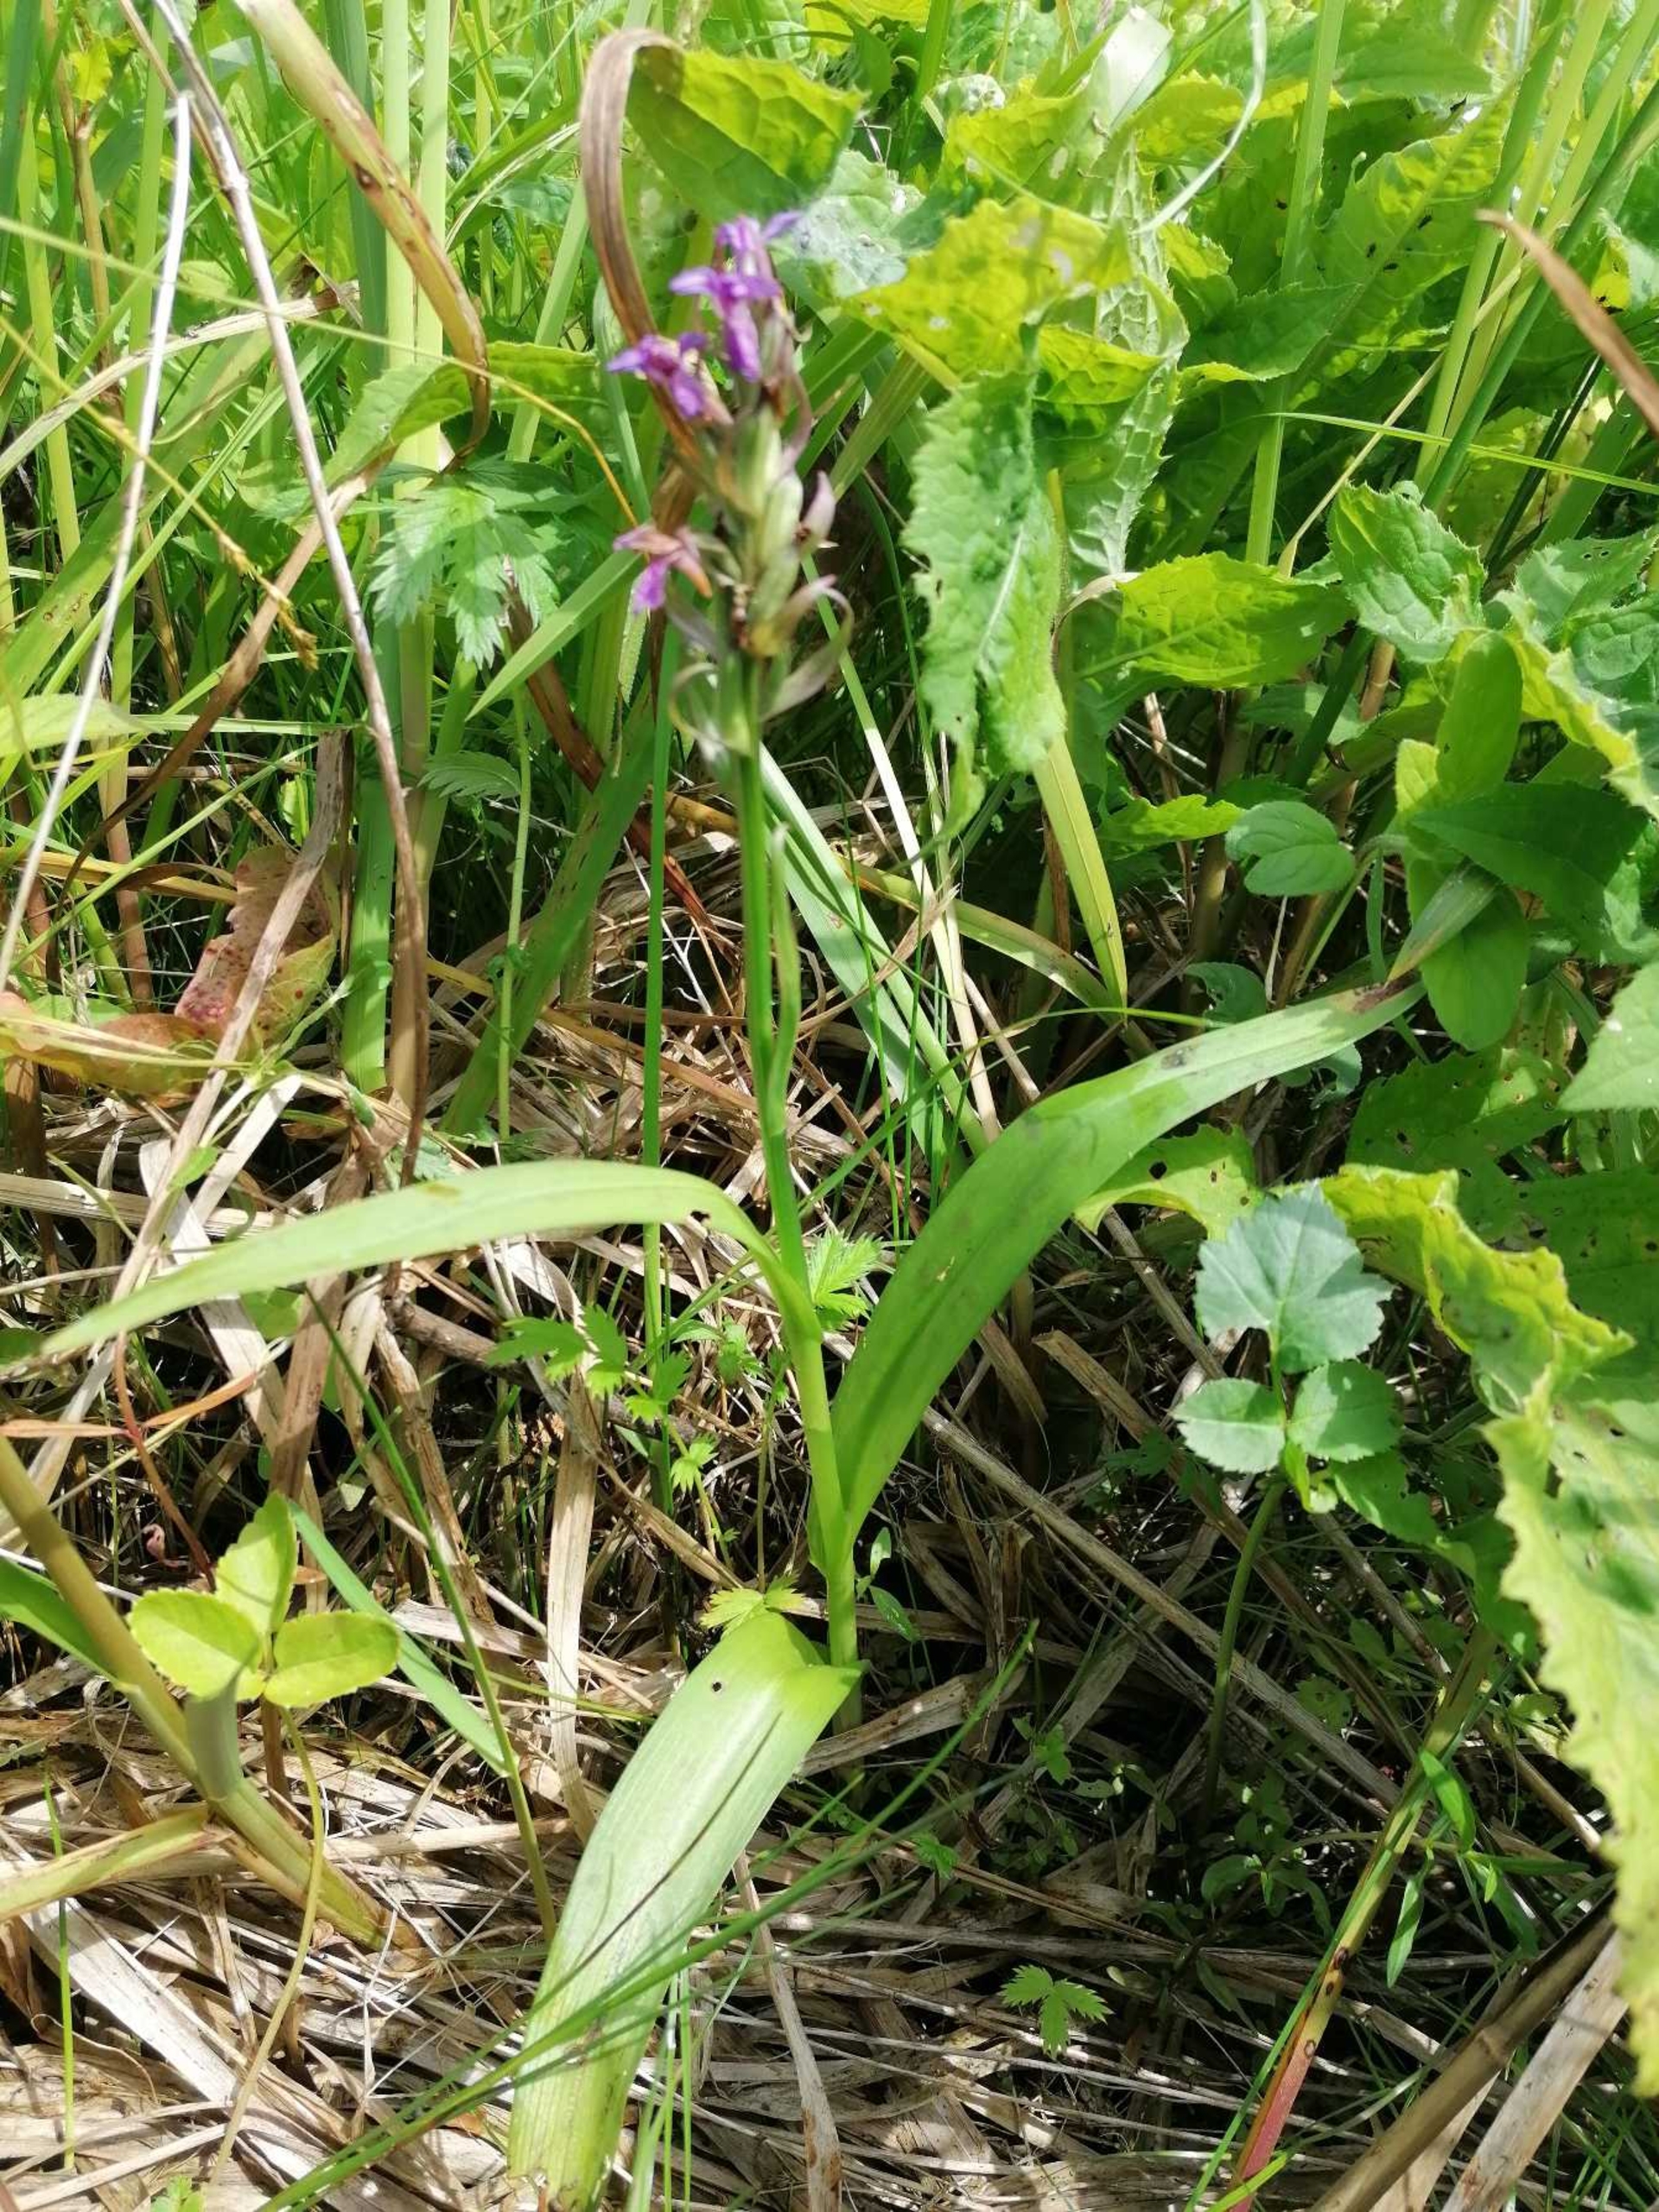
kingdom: Plantae
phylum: Tracheophyta
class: Liliopsida
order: Asparagales
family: Orchidaceae
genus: Dactylorhiza
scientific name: Dactylorhiza
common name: Gøgeurt (Dactylorhiza-slægten)
